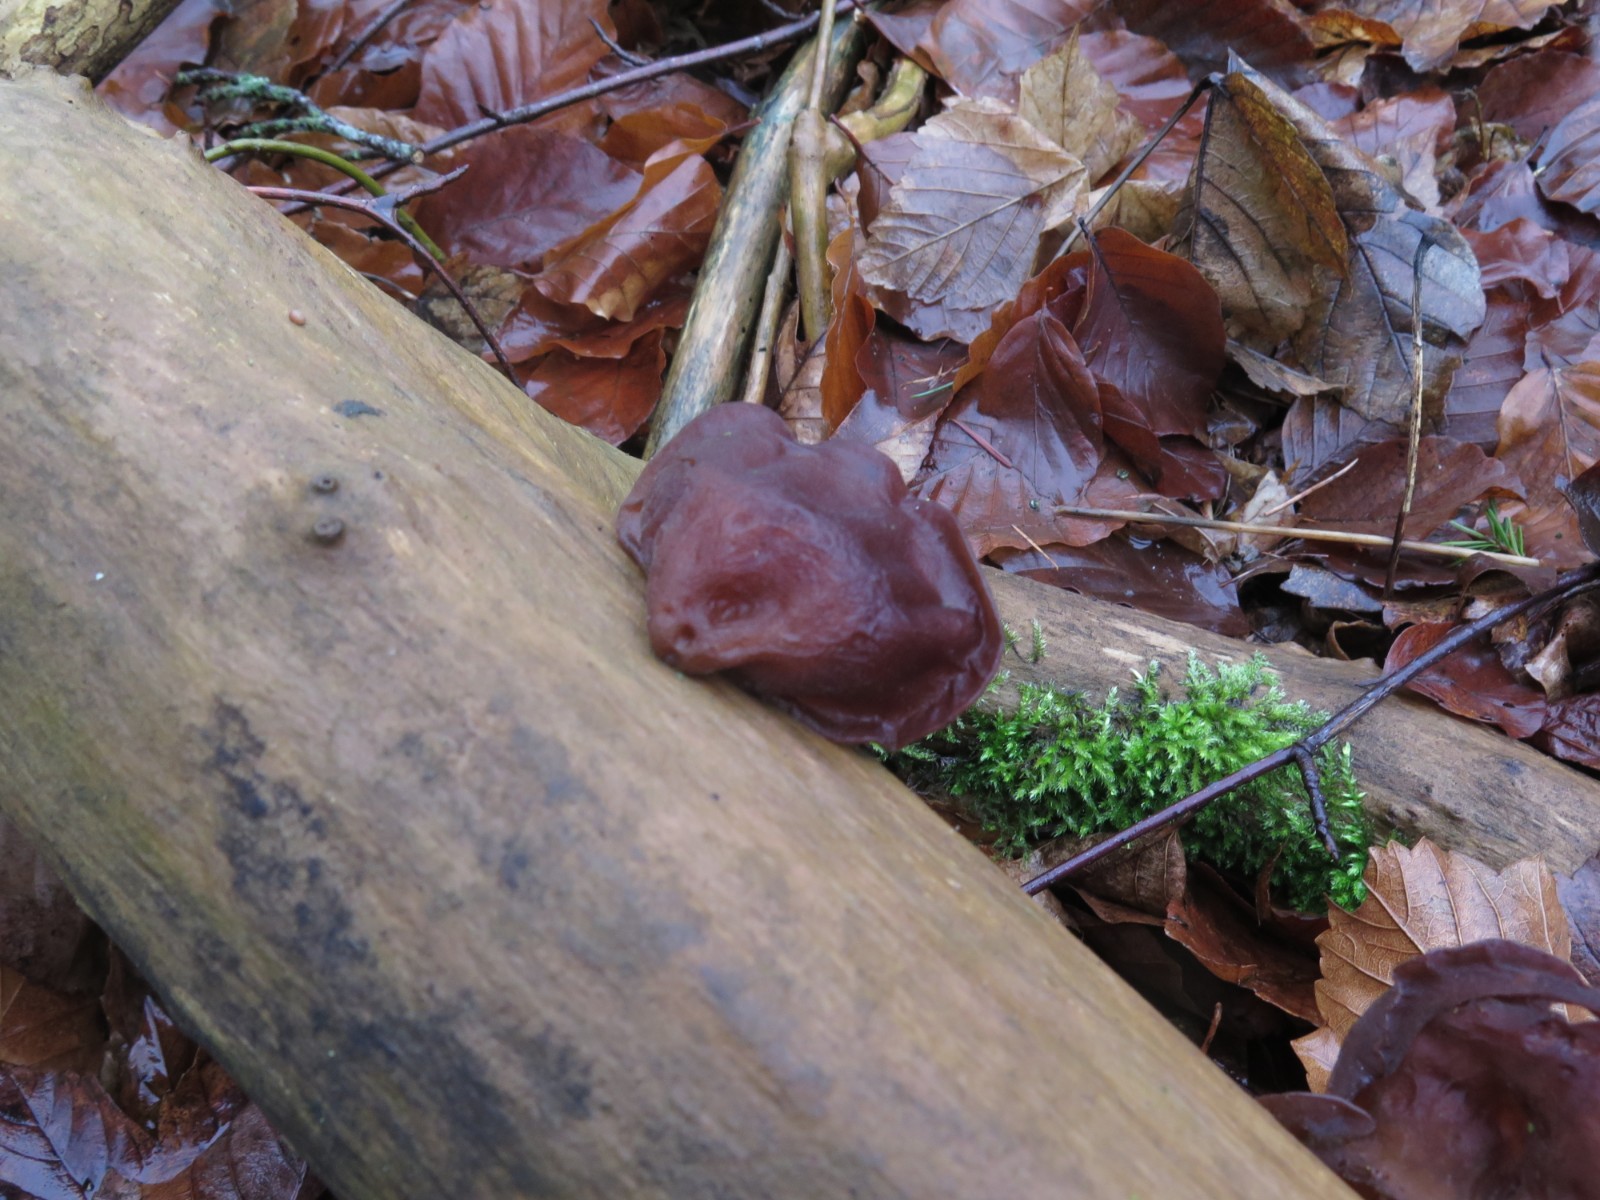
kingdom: Fungi
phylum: Basidiomycota
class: Agaricomycetes
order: Auriculariales
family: Auriculariaceae
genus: Auricularia
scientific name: Auricularia auricula-judae
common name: almindelig judasøre
